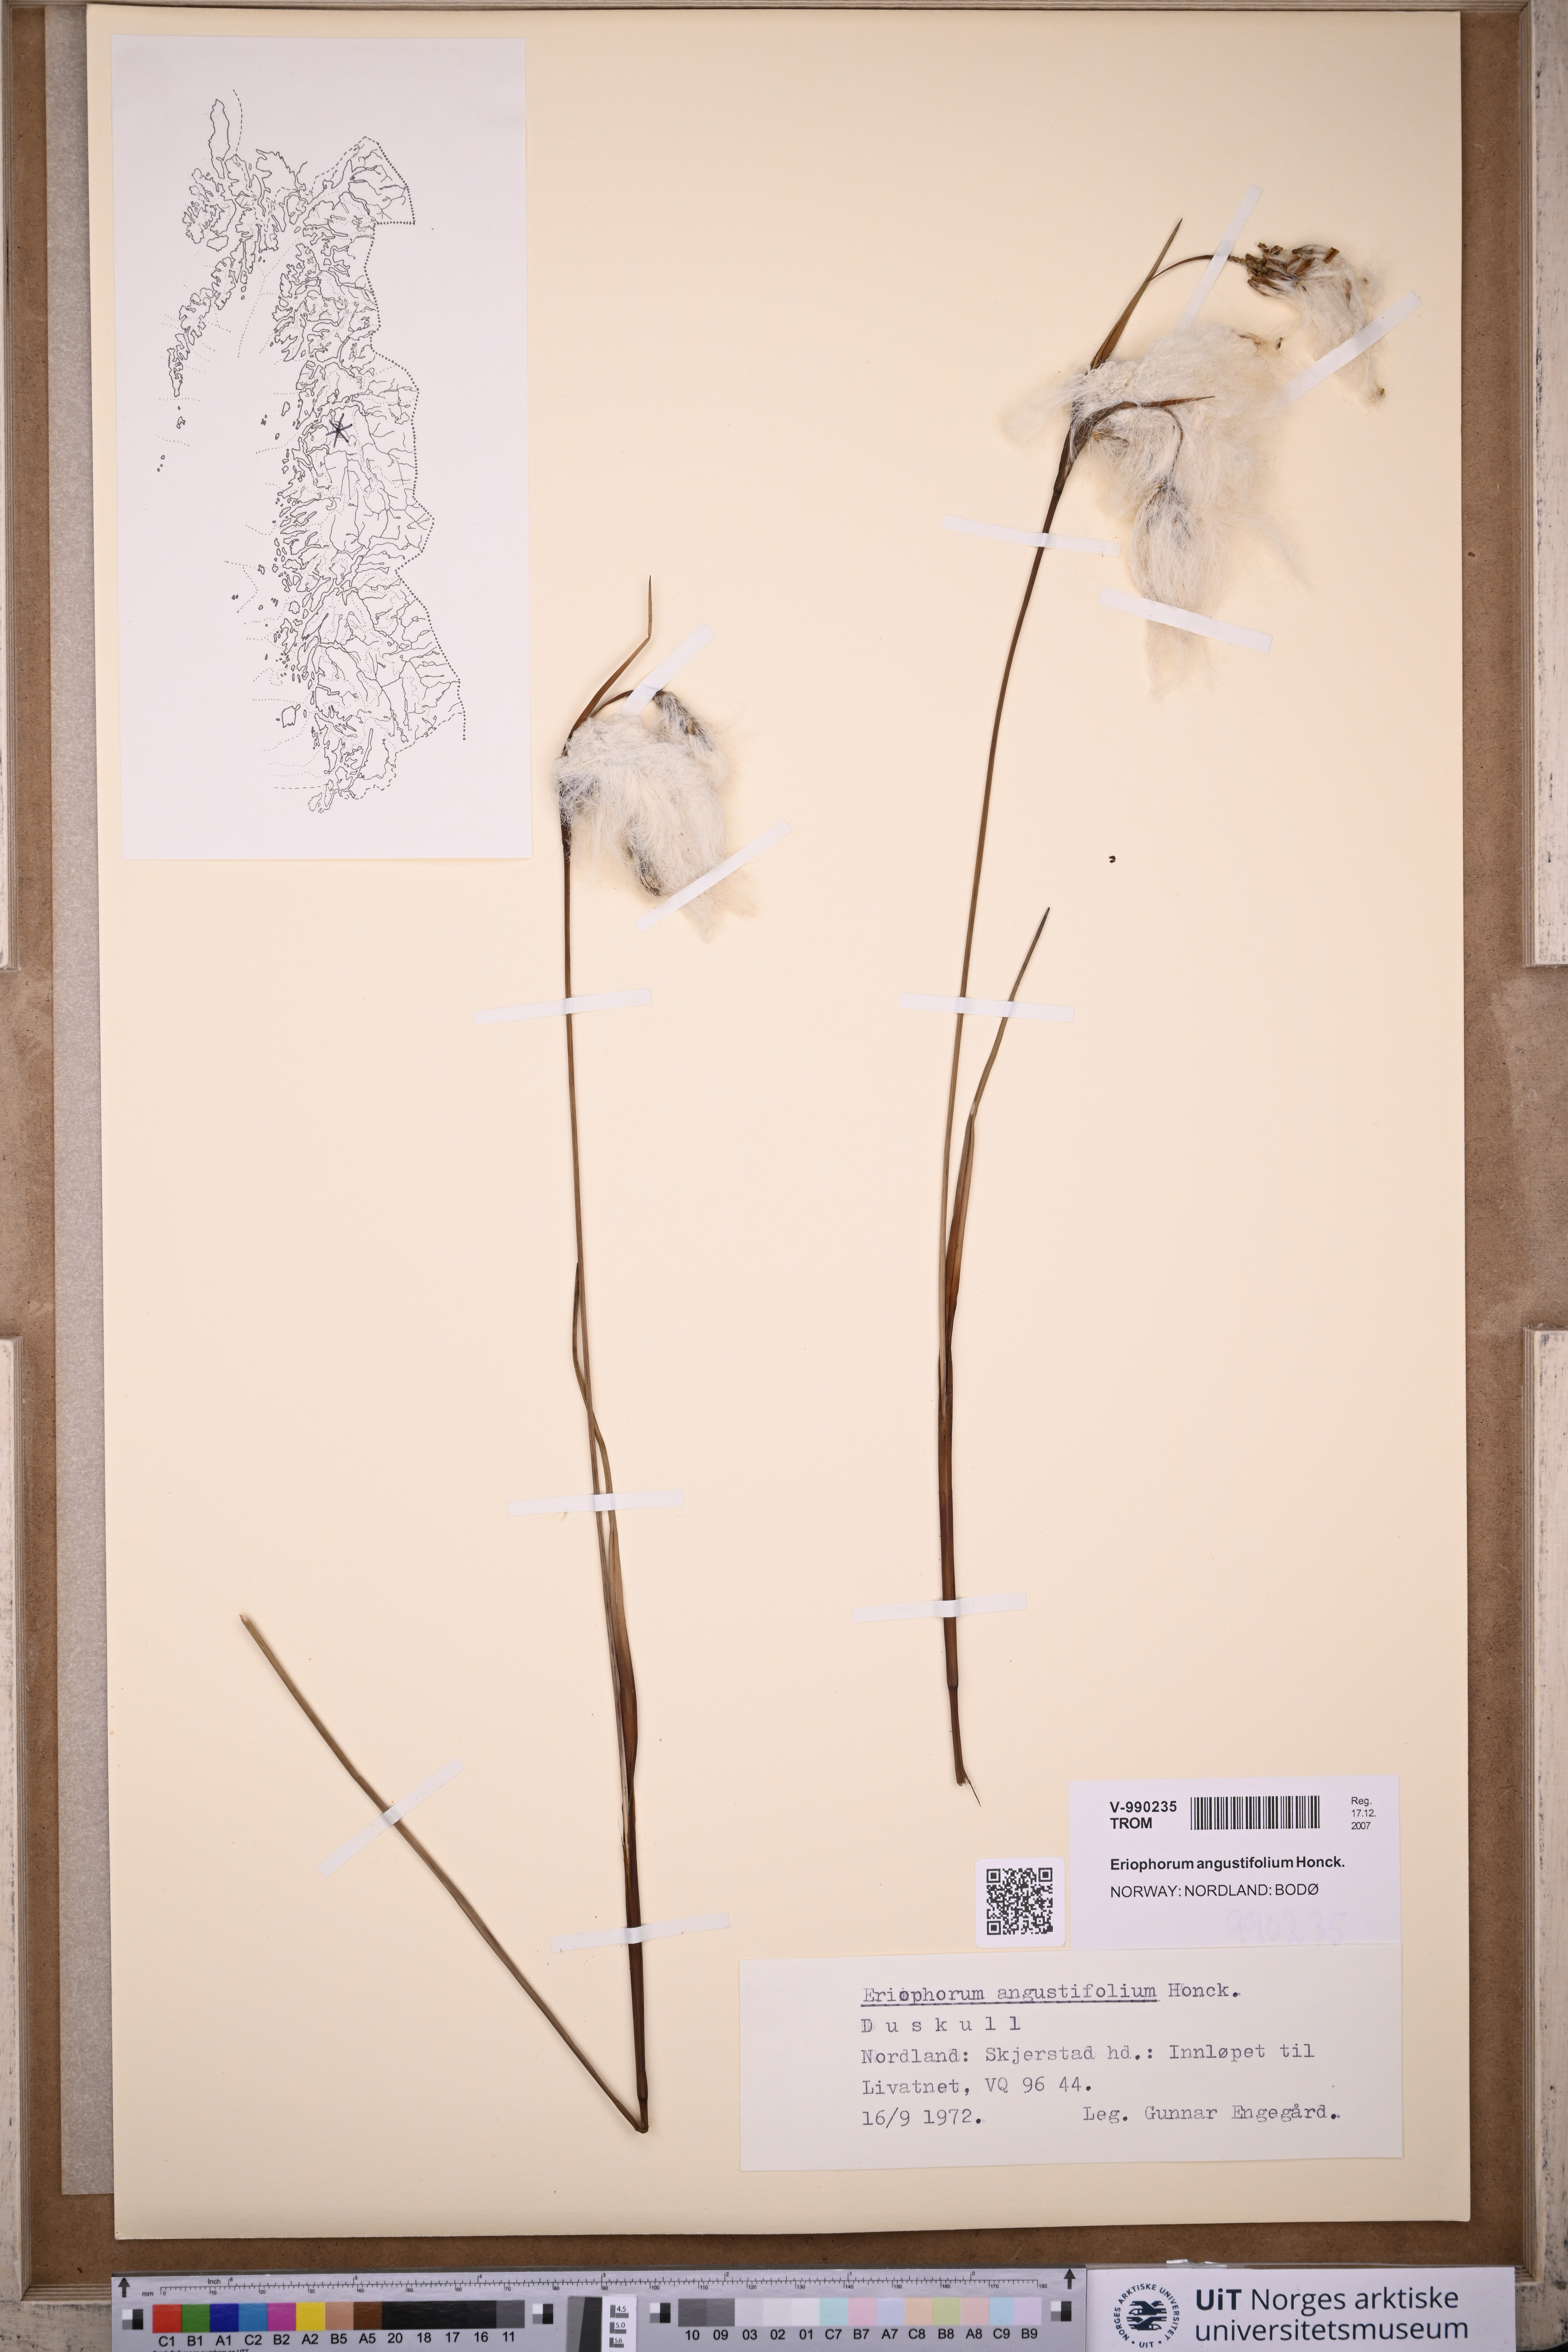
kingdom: Plantae
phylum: Tracheophyta
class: Liliopsida
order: Poales
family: Cyperaceae
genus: Eriophorum
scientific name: Eriophorum angustifolium
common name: Common cottongrass
